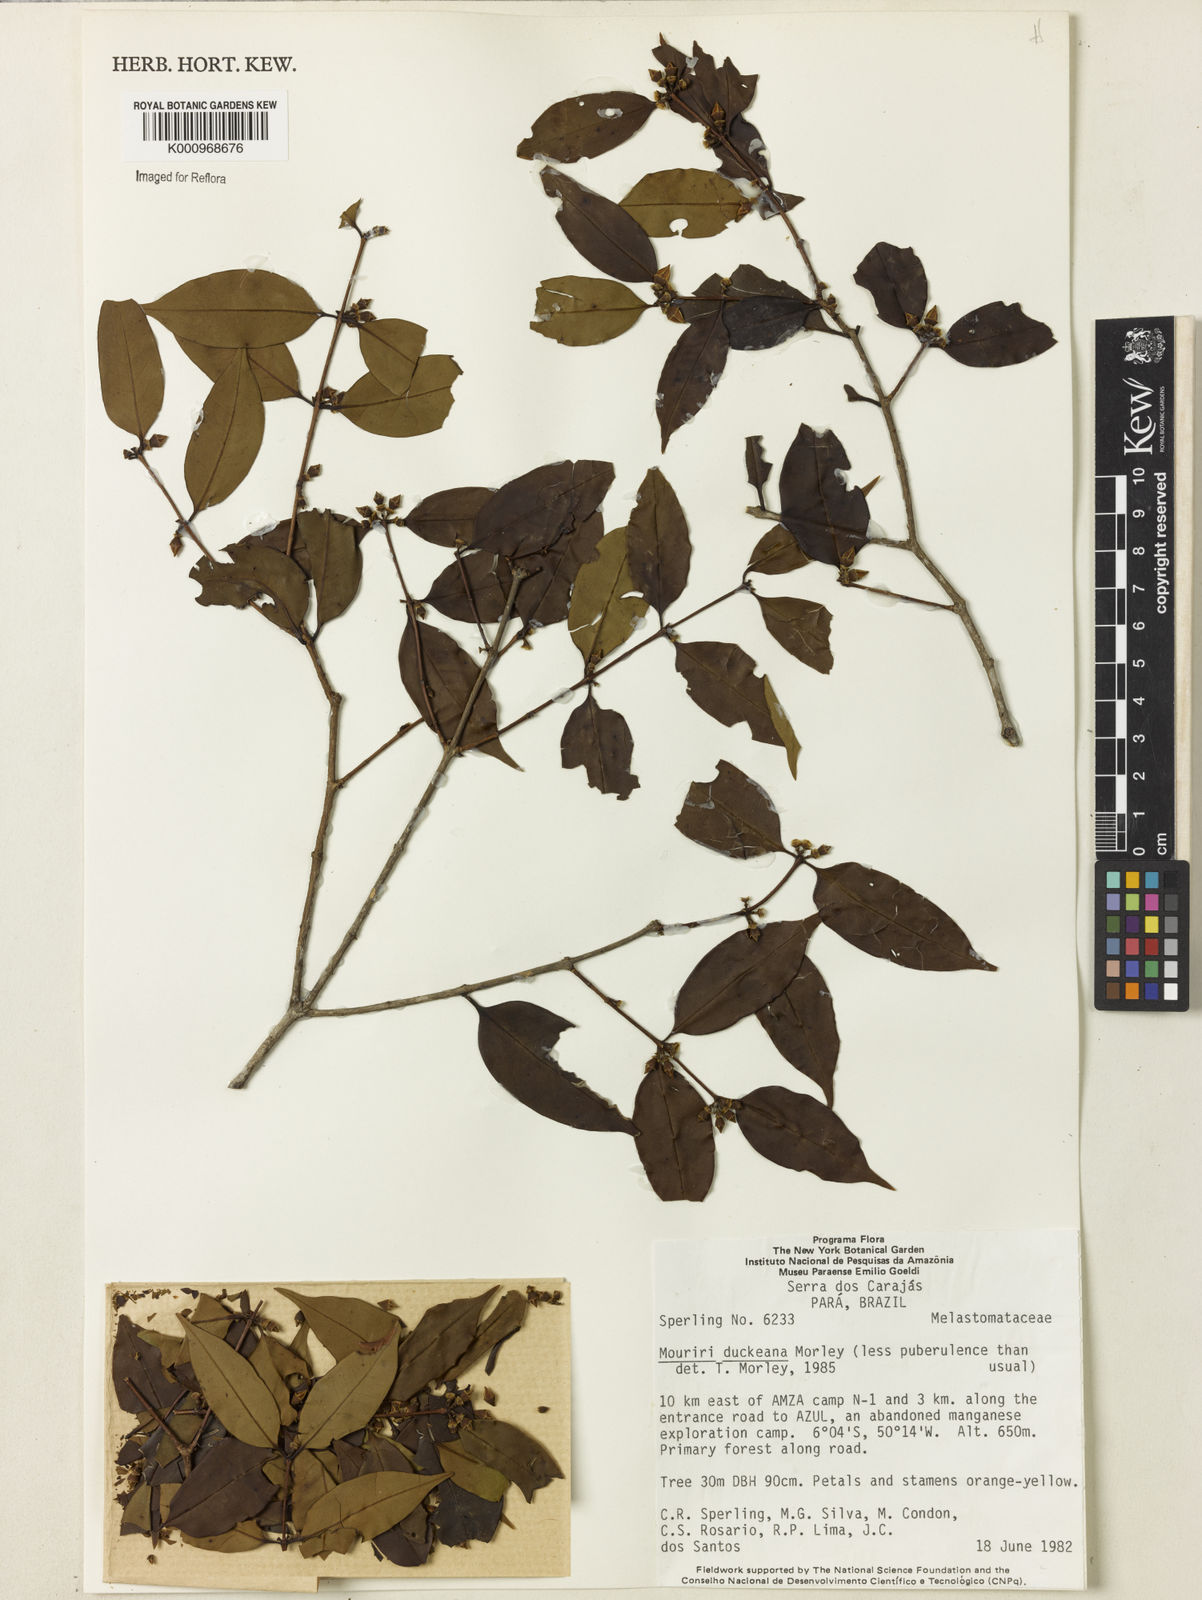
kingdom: Plantae
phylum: Tracheophyta
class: Magnoliopsida
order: Myrtales
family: Melastomataceae
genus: Mouriri
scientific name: Mouriri duckeana
